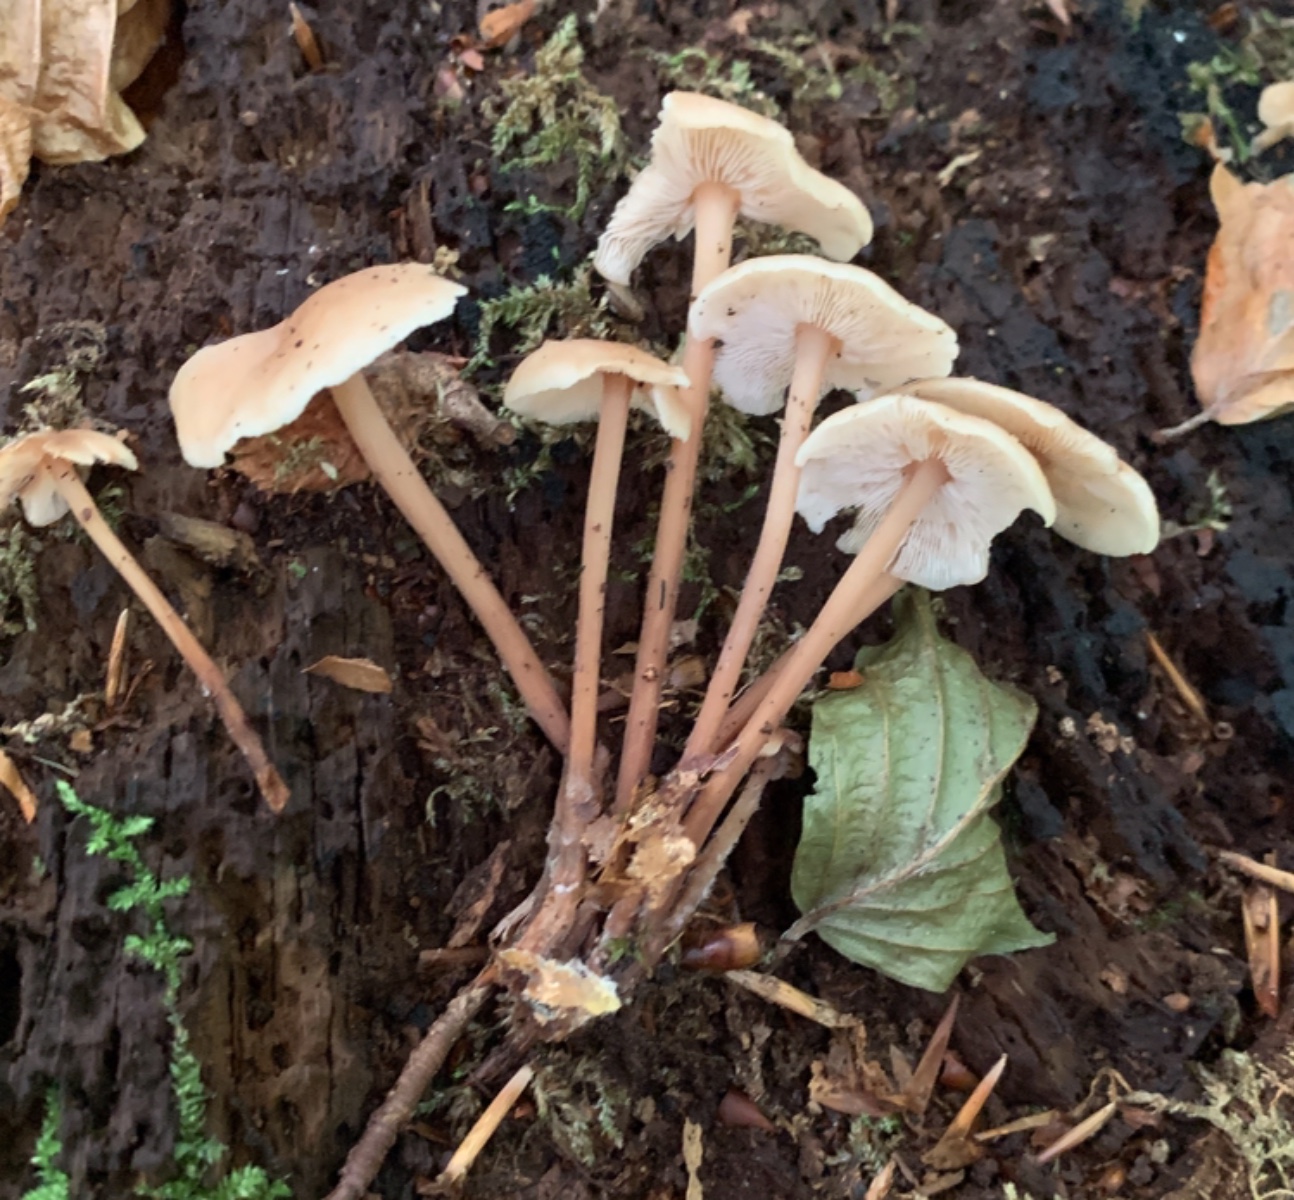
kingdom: Fungi
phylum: Basidiomycota
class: Agaricomycetes
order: Agaricales
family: Omphalotaceae
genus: Collybiopsis
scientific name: Collybiopsis confluens
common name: knippe-fladhat
